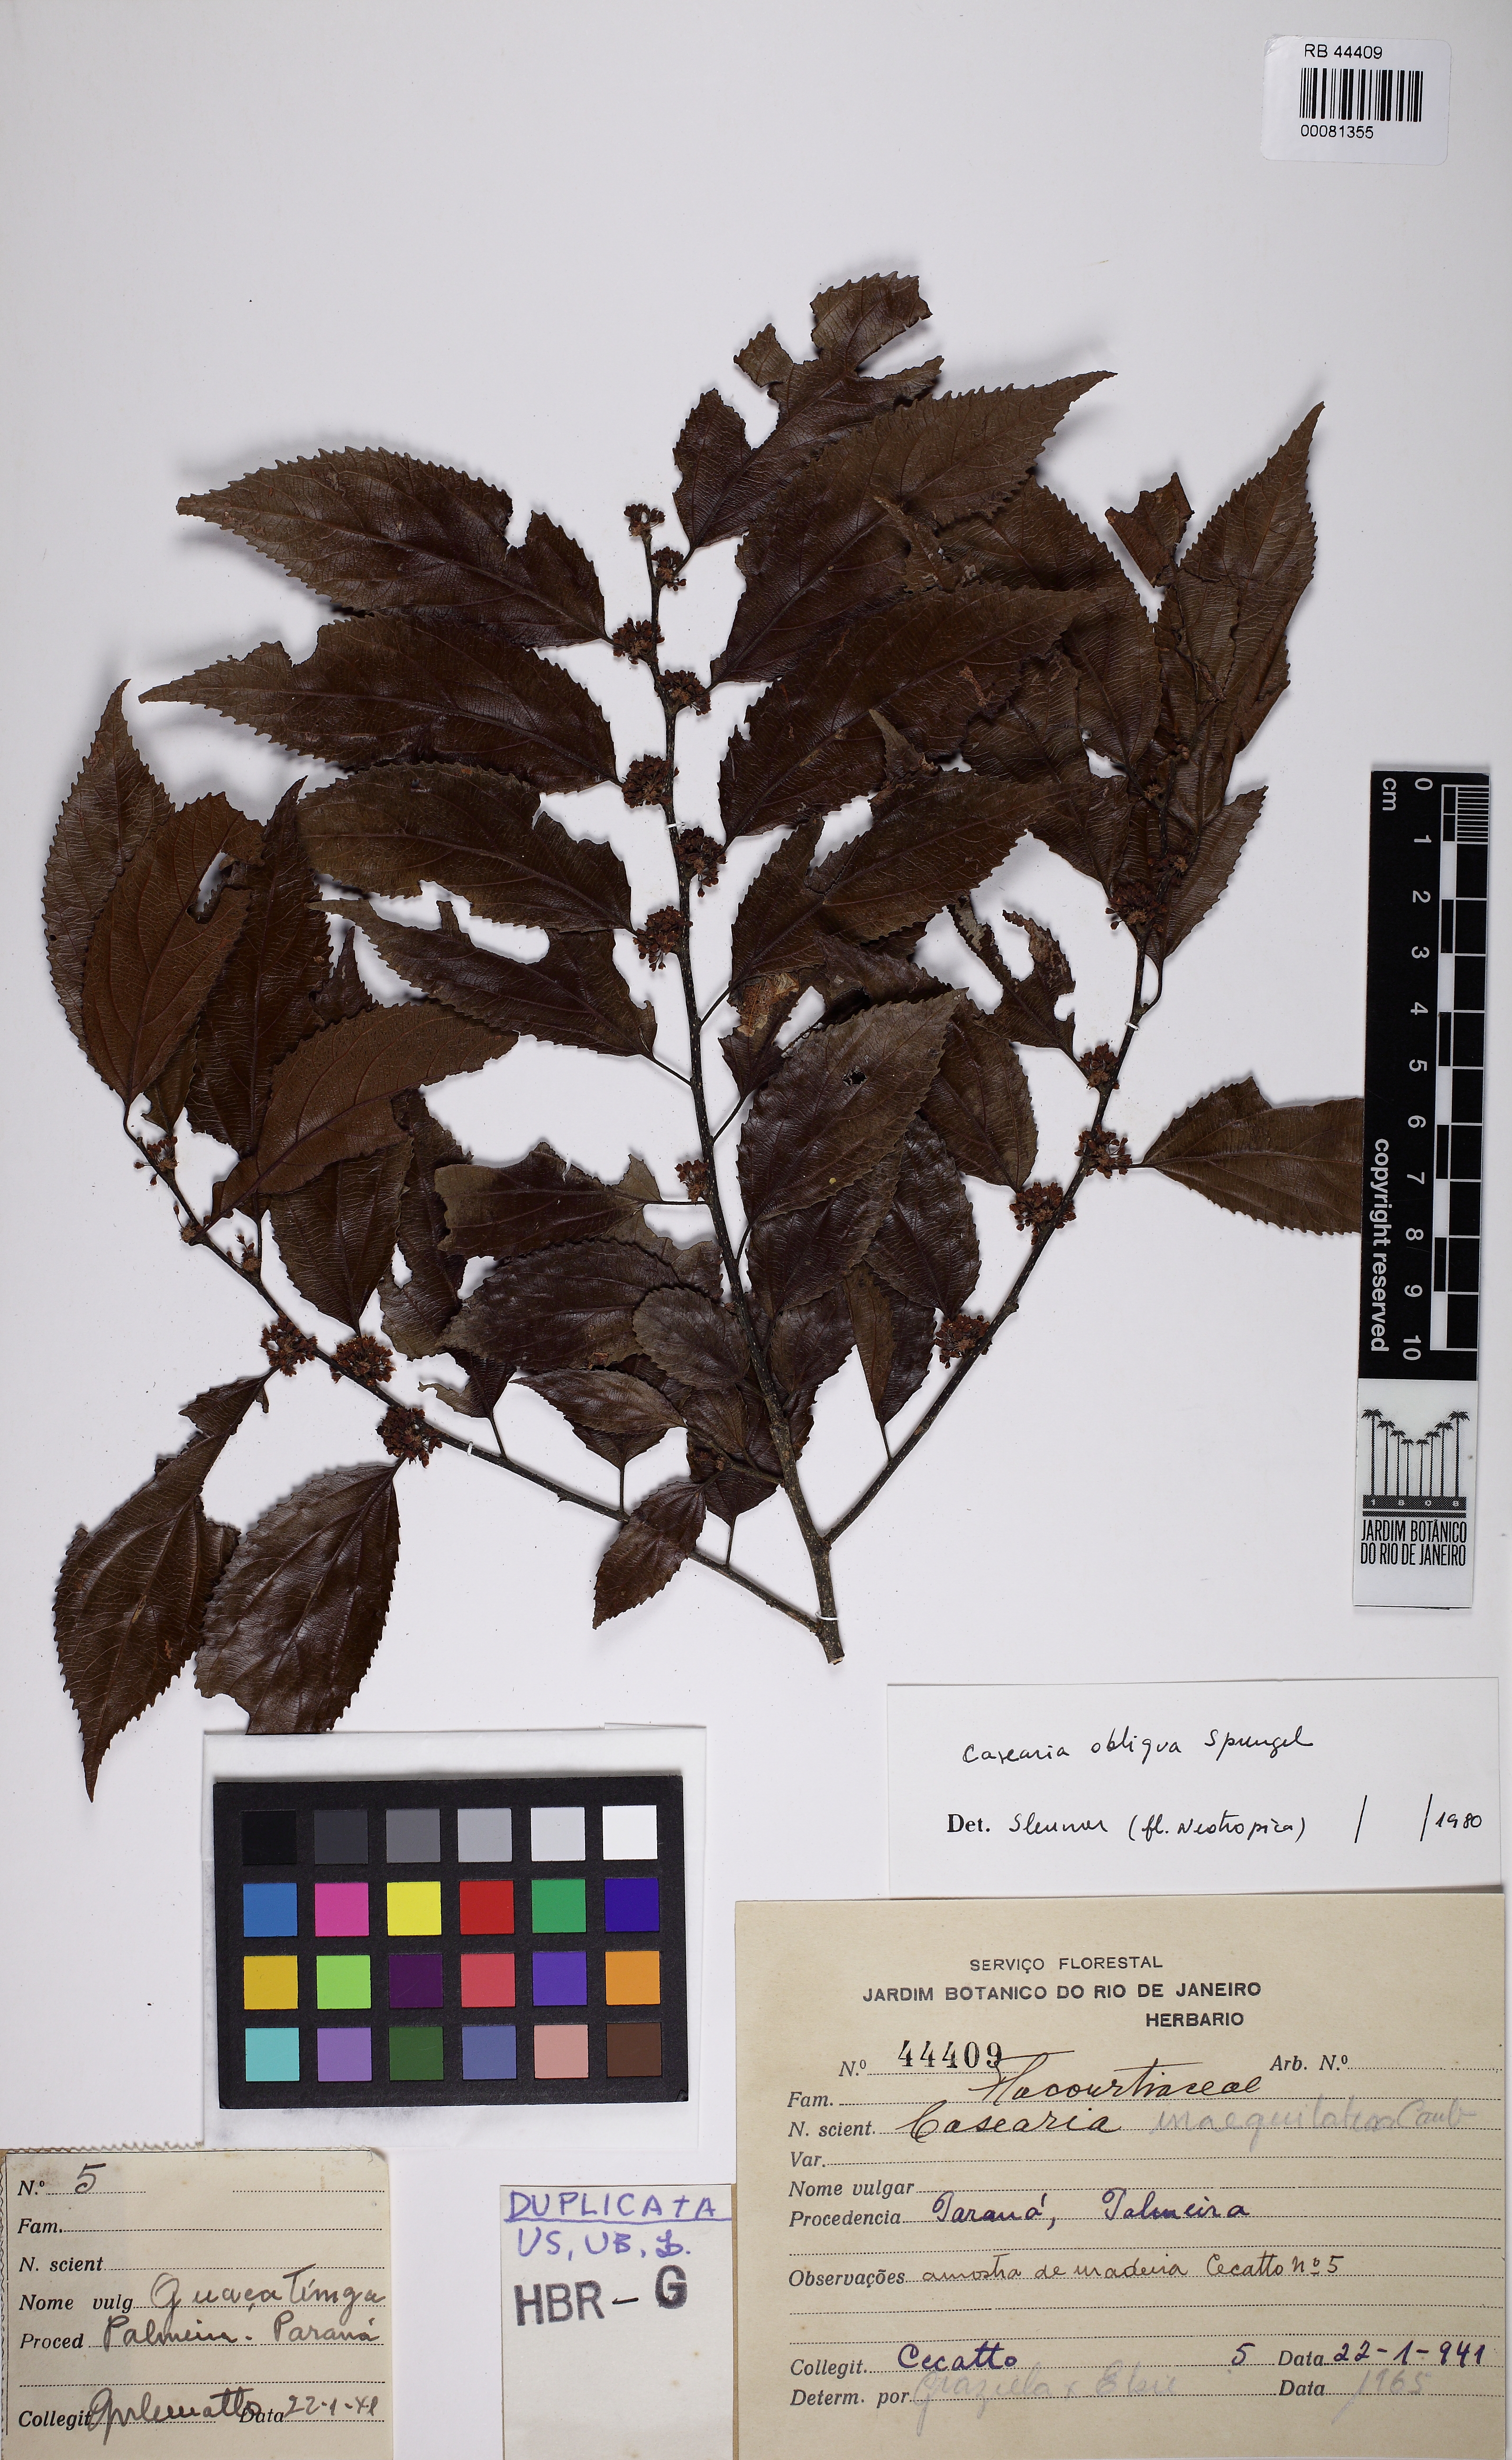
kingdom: Plantae
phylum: Tracheophyta
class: Magnoliopsida
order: Malpighiales
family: Salicaceae
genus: Casearia
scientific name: Casearia obliqua
